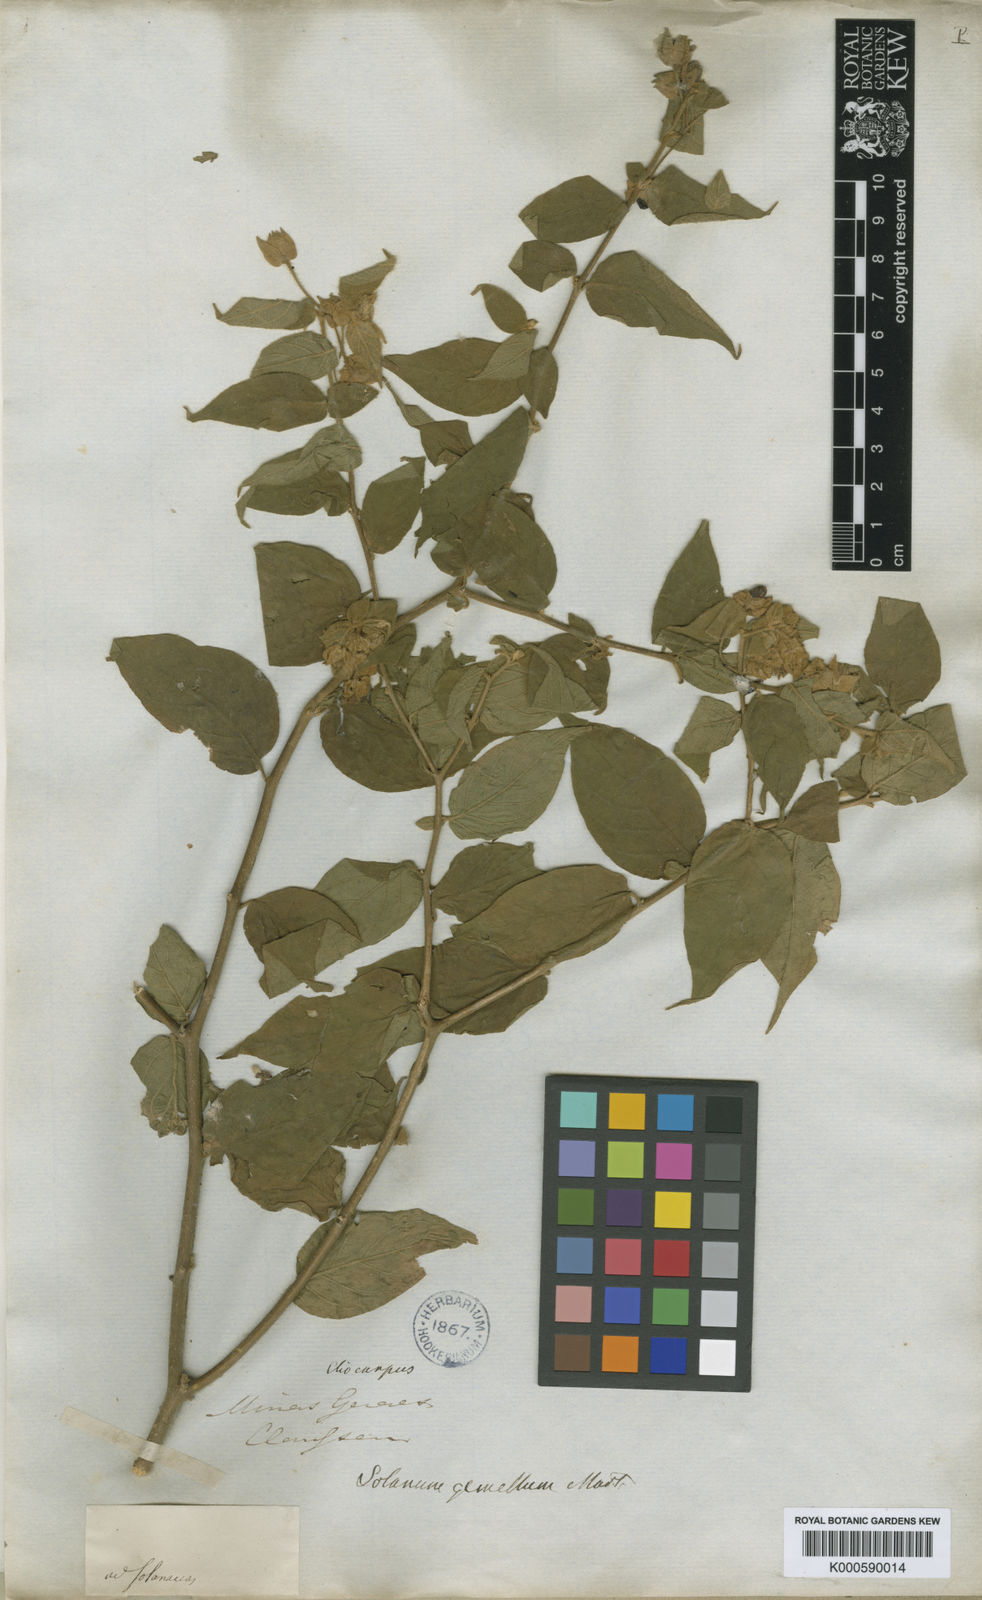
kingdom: Plantae
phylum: Tracheophyta
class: Magnoliopsida
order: Solanales
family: Solanaceae
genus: Solanum
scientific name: Solanum didymum
